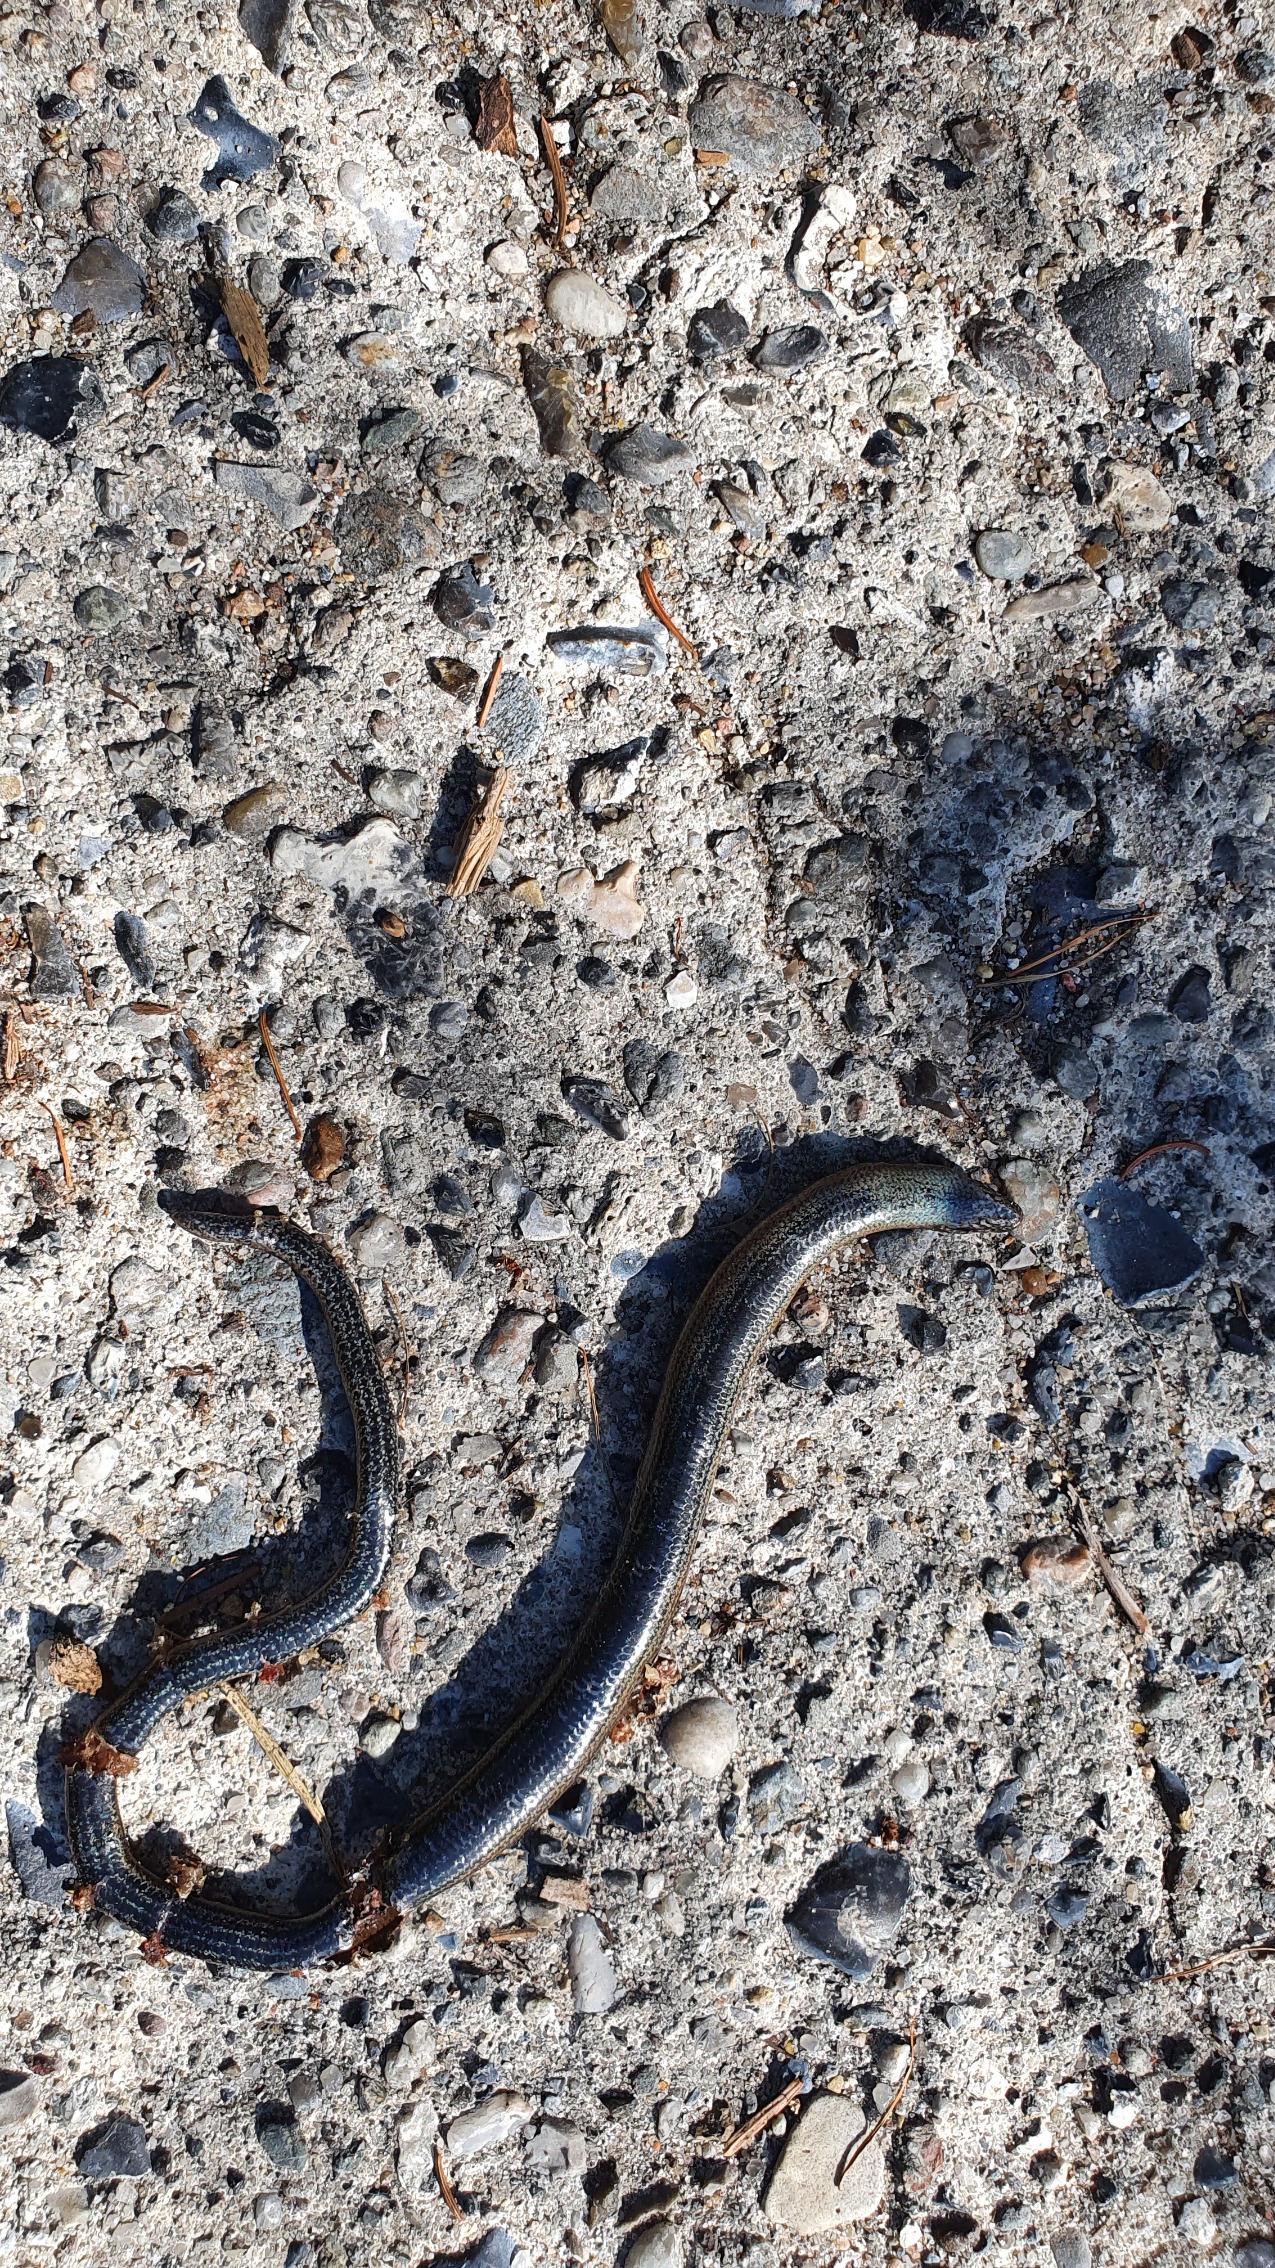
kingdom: Animalia
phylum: Chordata
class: Squamata
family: Anguidae
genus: Anguis
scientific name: Anguis fragilis
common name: Stålorm
